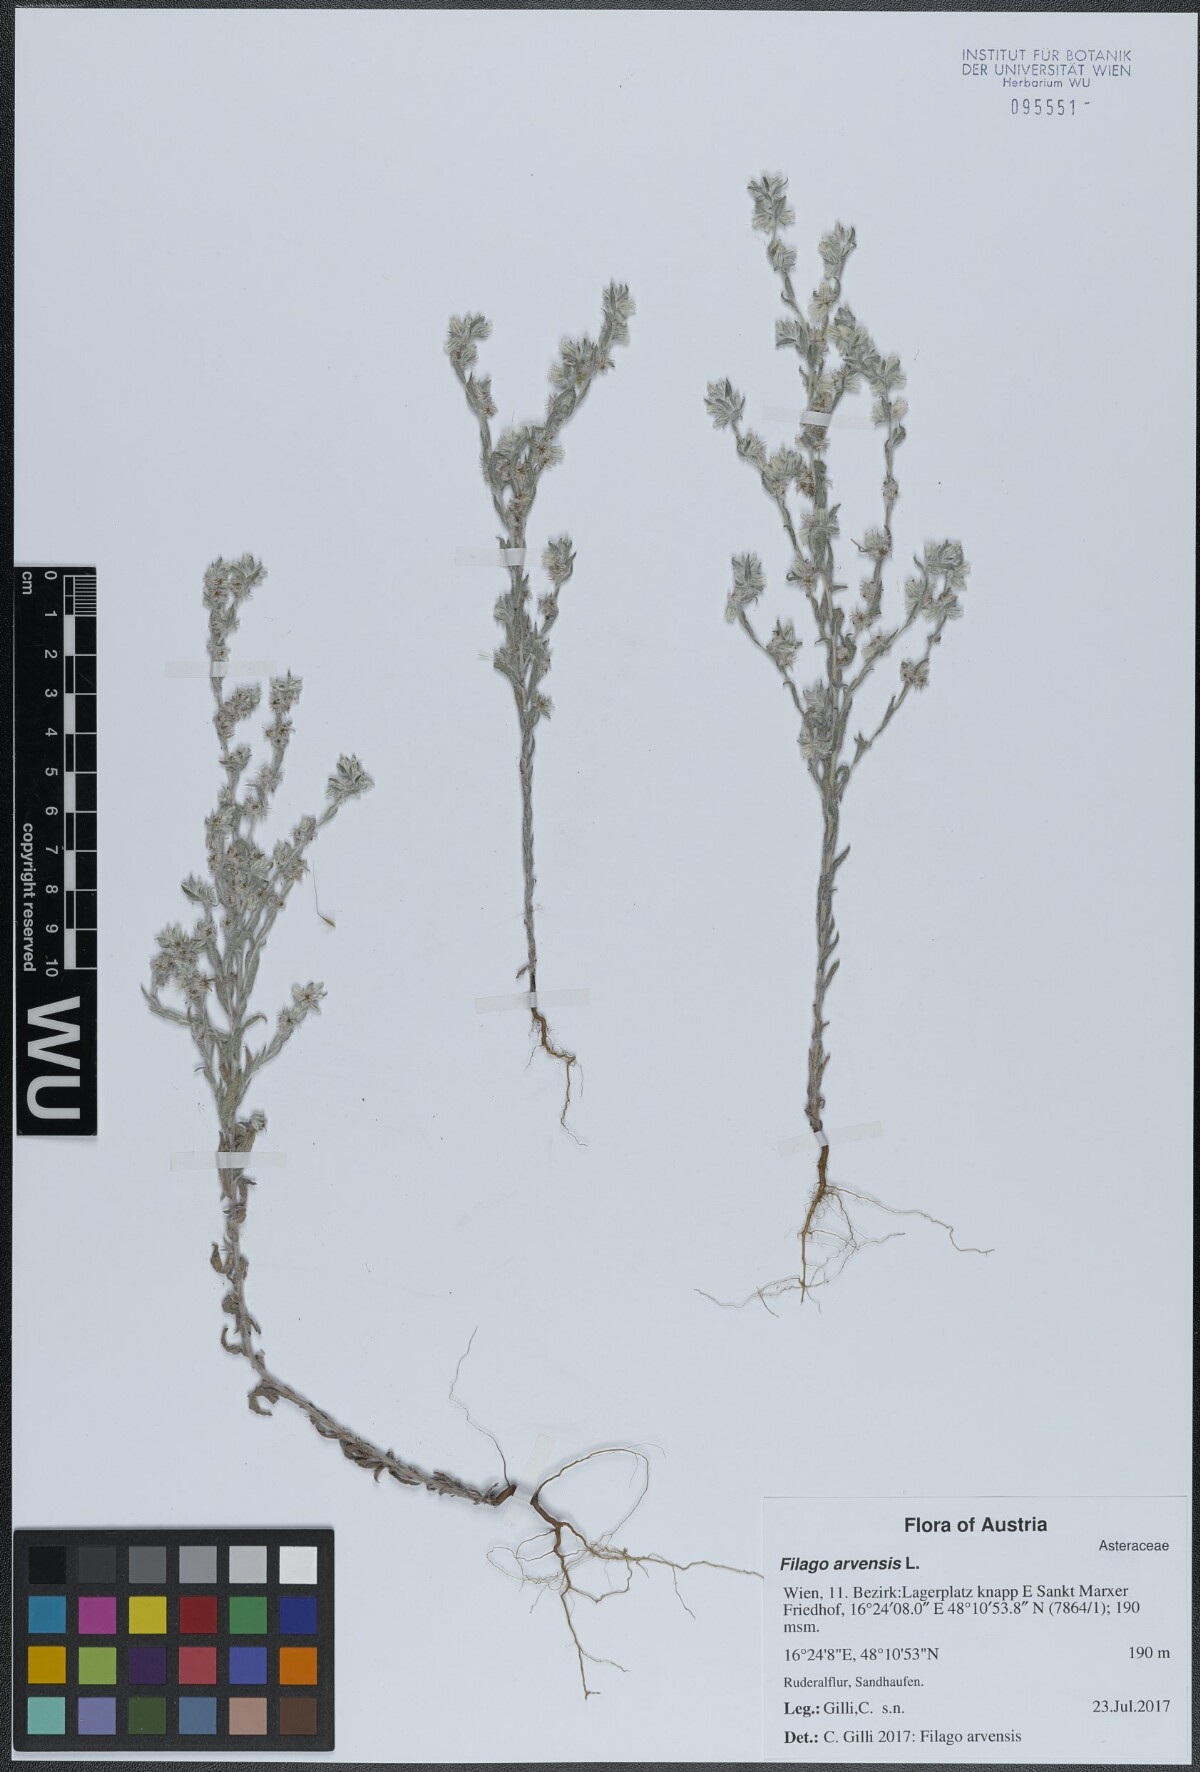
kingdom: Plantae
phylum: Tracheophyta
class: Magnoliopsida
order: Asterales
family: Asteraceae
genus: Filago
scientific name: Filago arvensis
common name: Field cudweed
